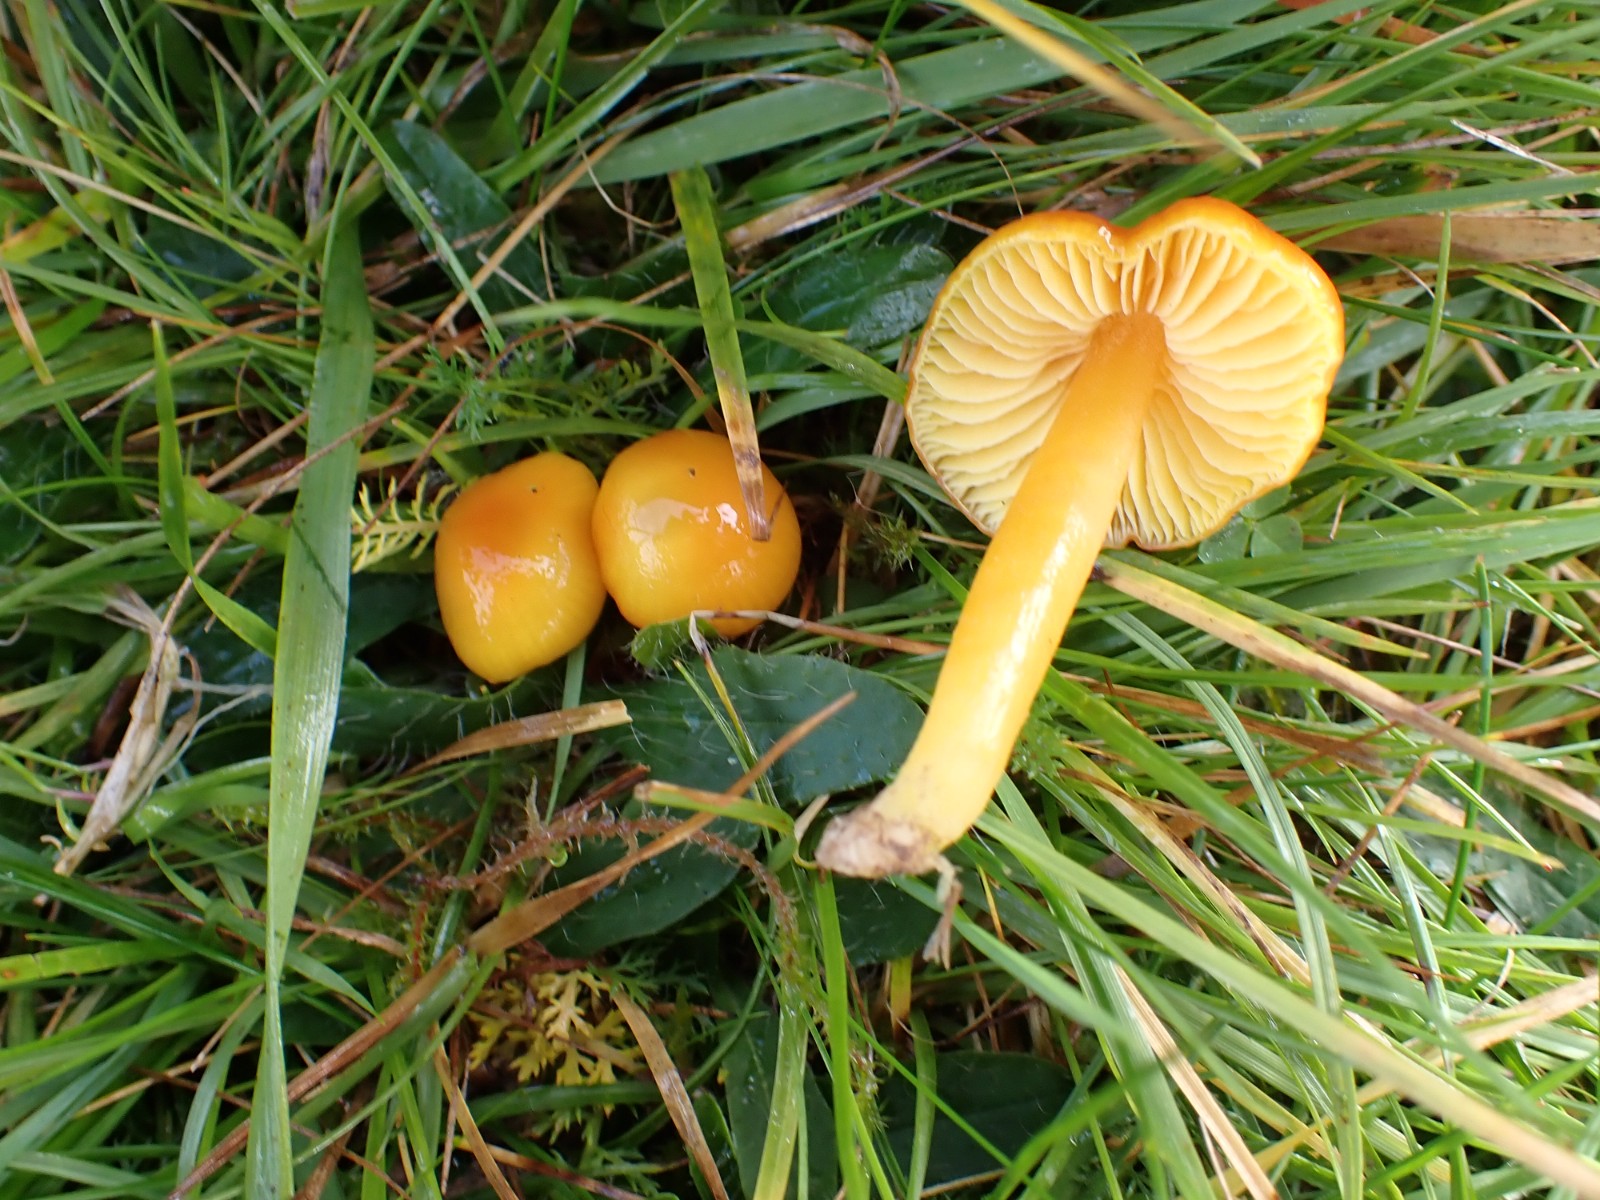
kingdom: Fungi
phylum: Basidiomycota
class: Agaricomycetes
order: Agaricales
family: Hygrophoraceae
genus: Hygrocybe
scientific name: Hygrocybe glutinipes
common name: slimstokket vokshat
